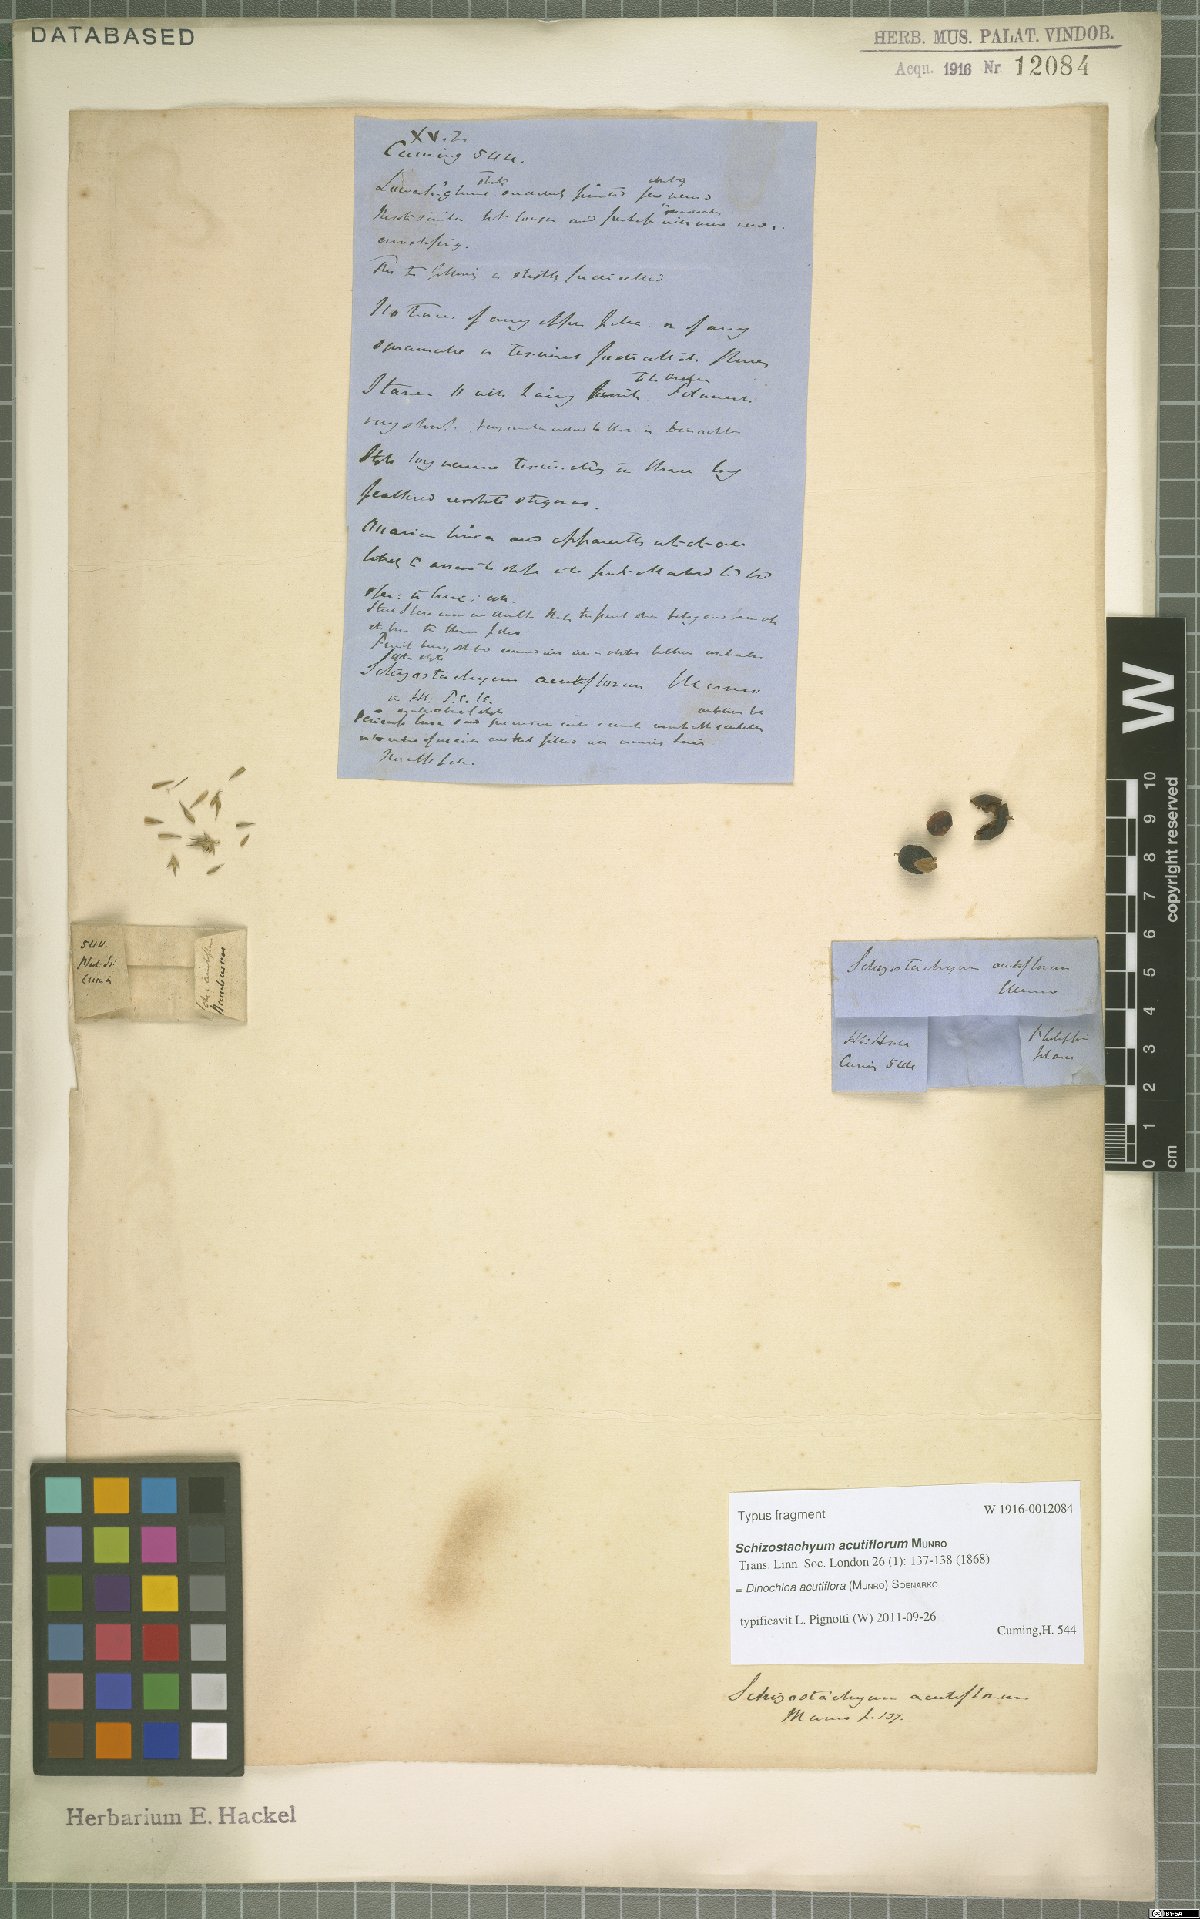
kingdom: Plantae
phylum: Tracheophyta
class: Liliopsida
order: Poales
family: Poaceae
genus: Dinochloa
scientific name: Dinochloa acutiflora
